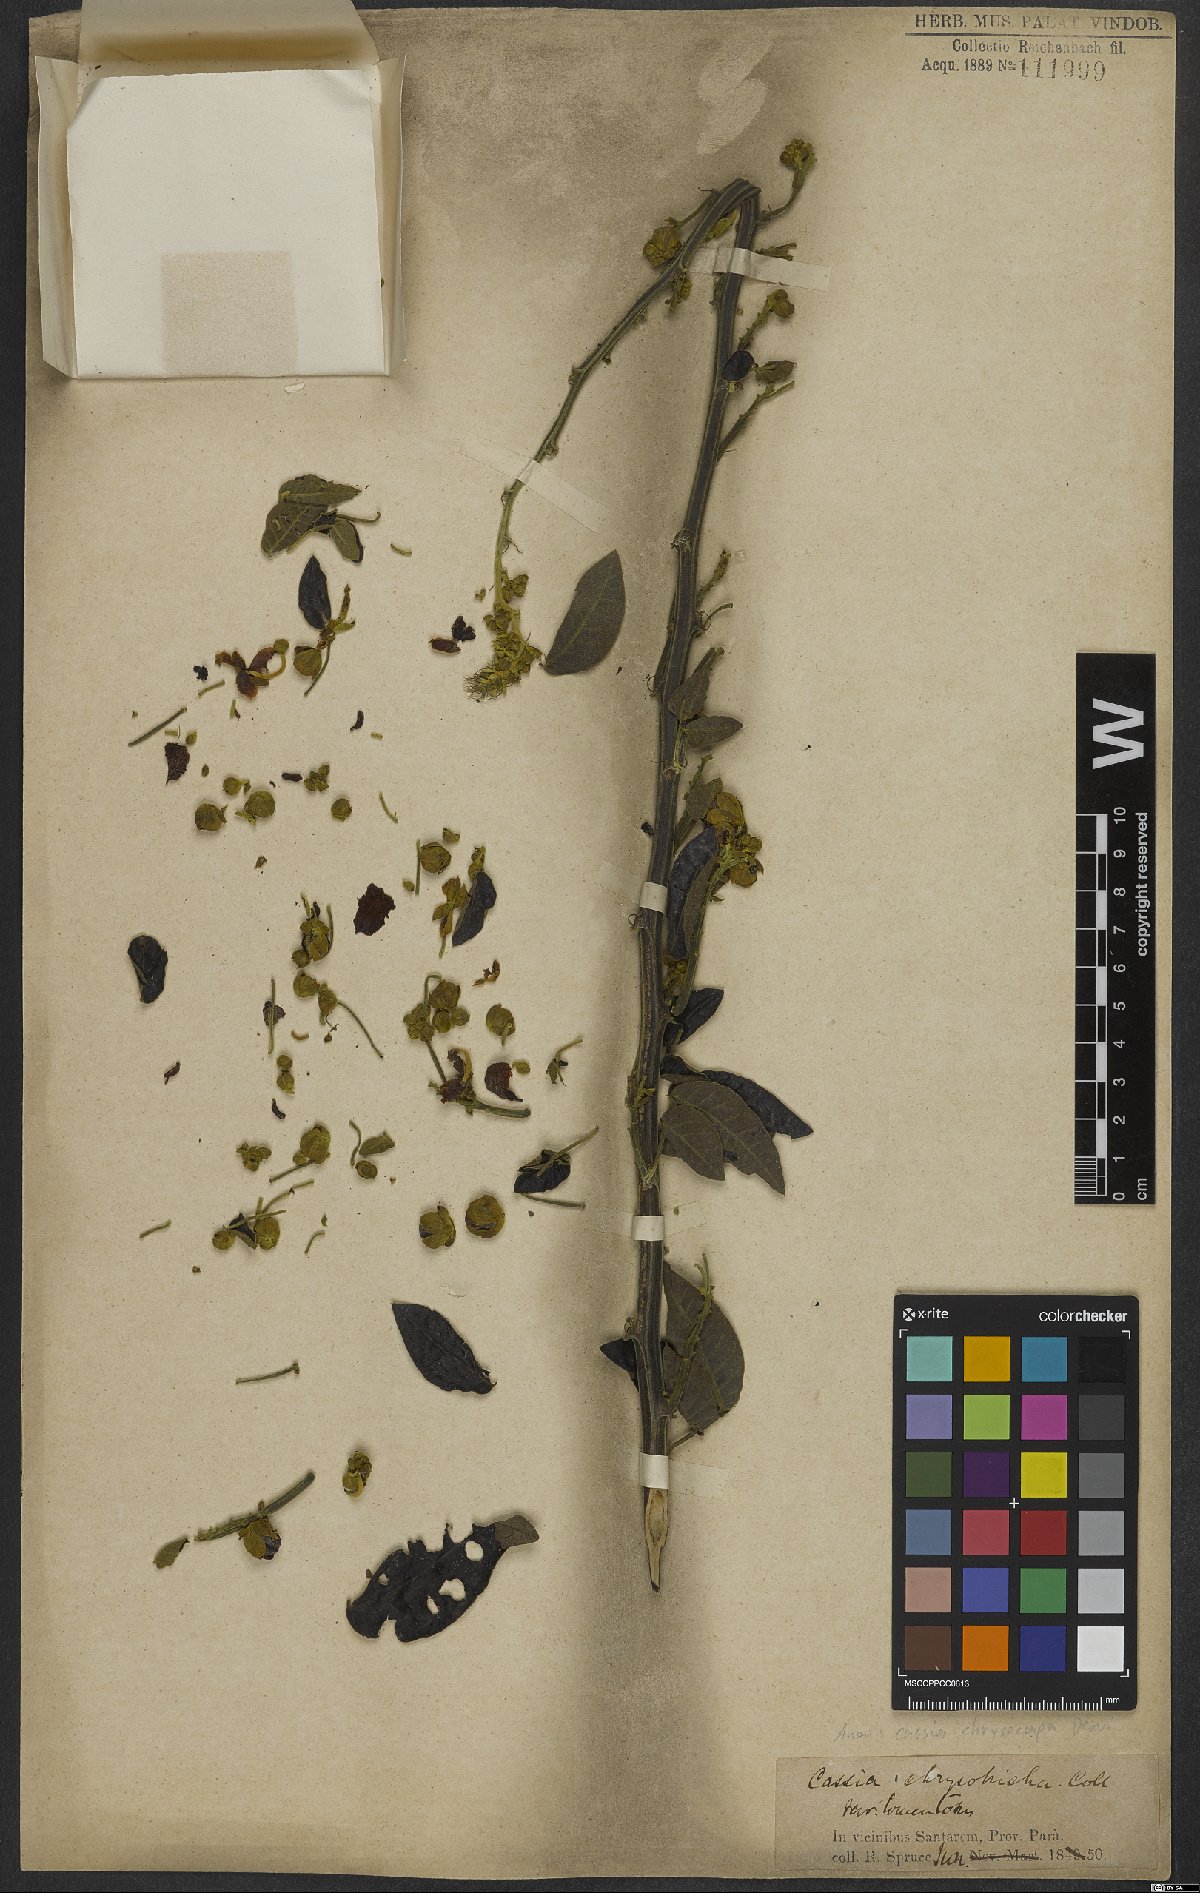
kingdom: Plantae
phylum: Tracheophyta
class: Magnoliopsida
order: Fabales
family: Fabaceae
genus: Senna
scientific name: Senna chrysocarpa
